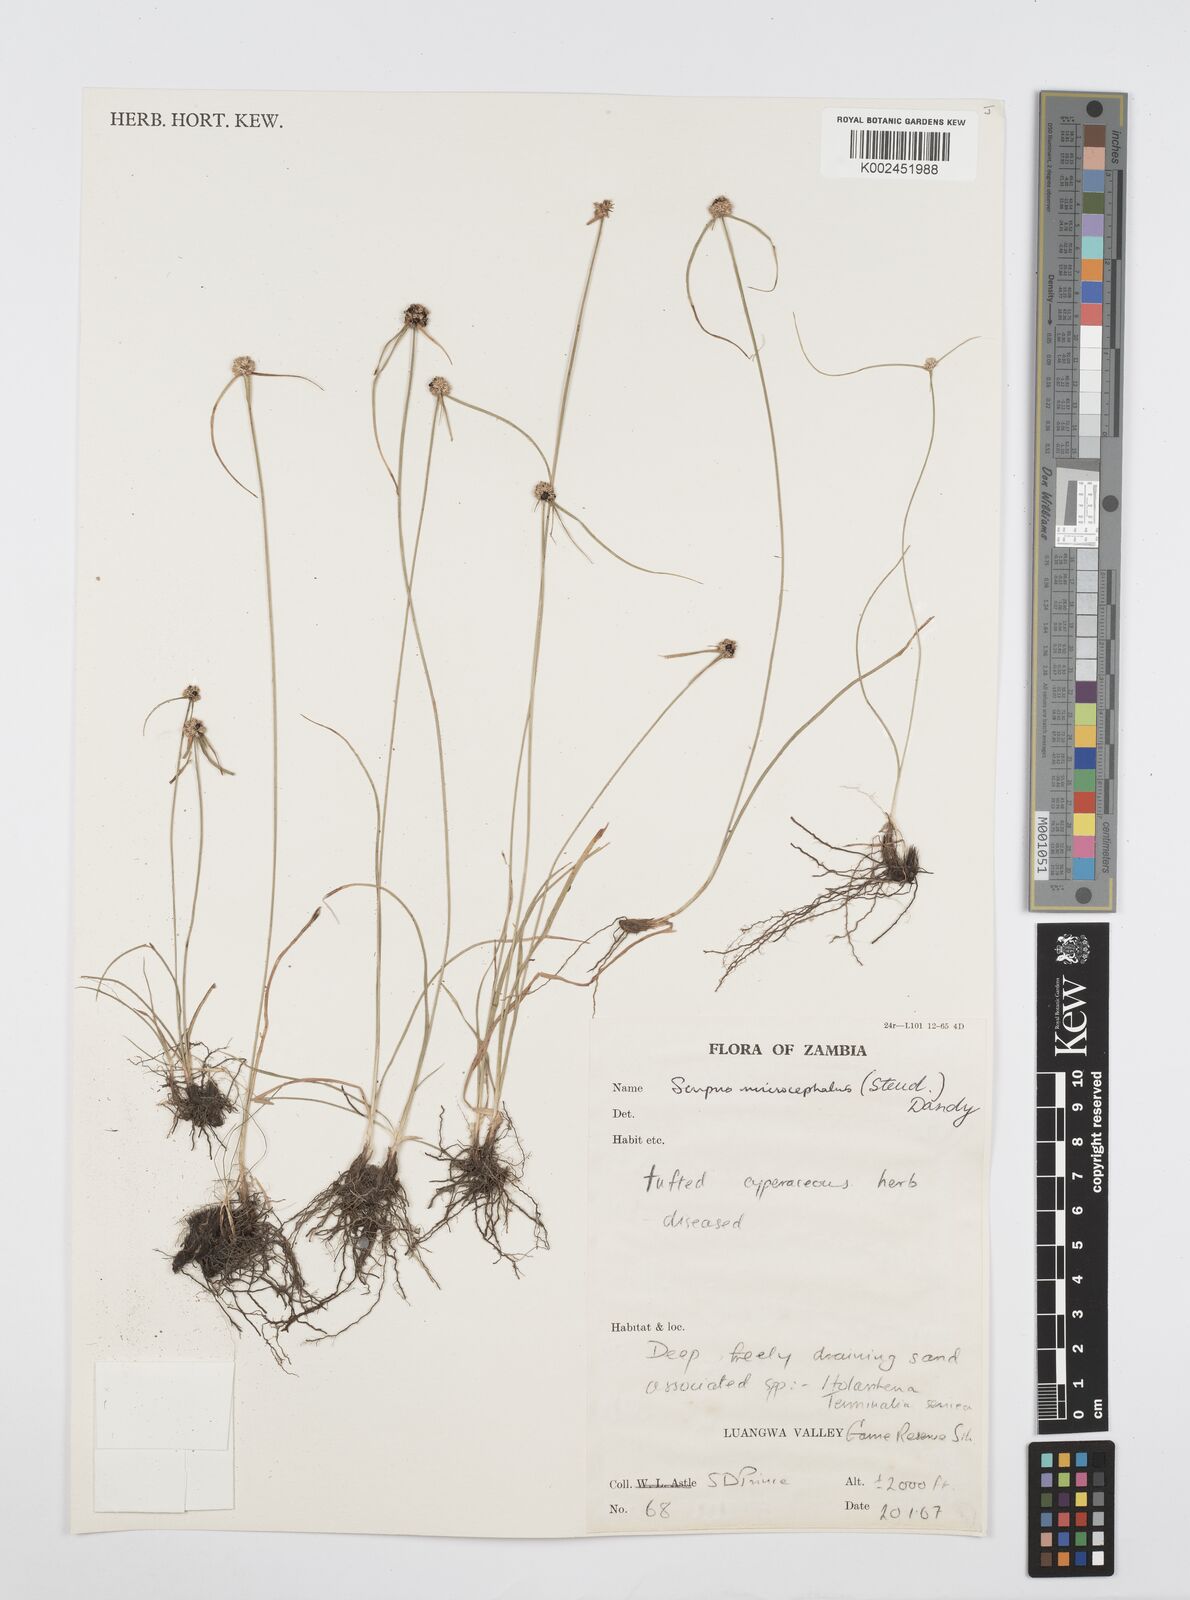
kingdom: Plantae
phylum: Tracheophyta
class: Liliopsida
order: Poales
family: Cyperaceae
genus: Cyperus
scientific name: Cyperus microcephalus
